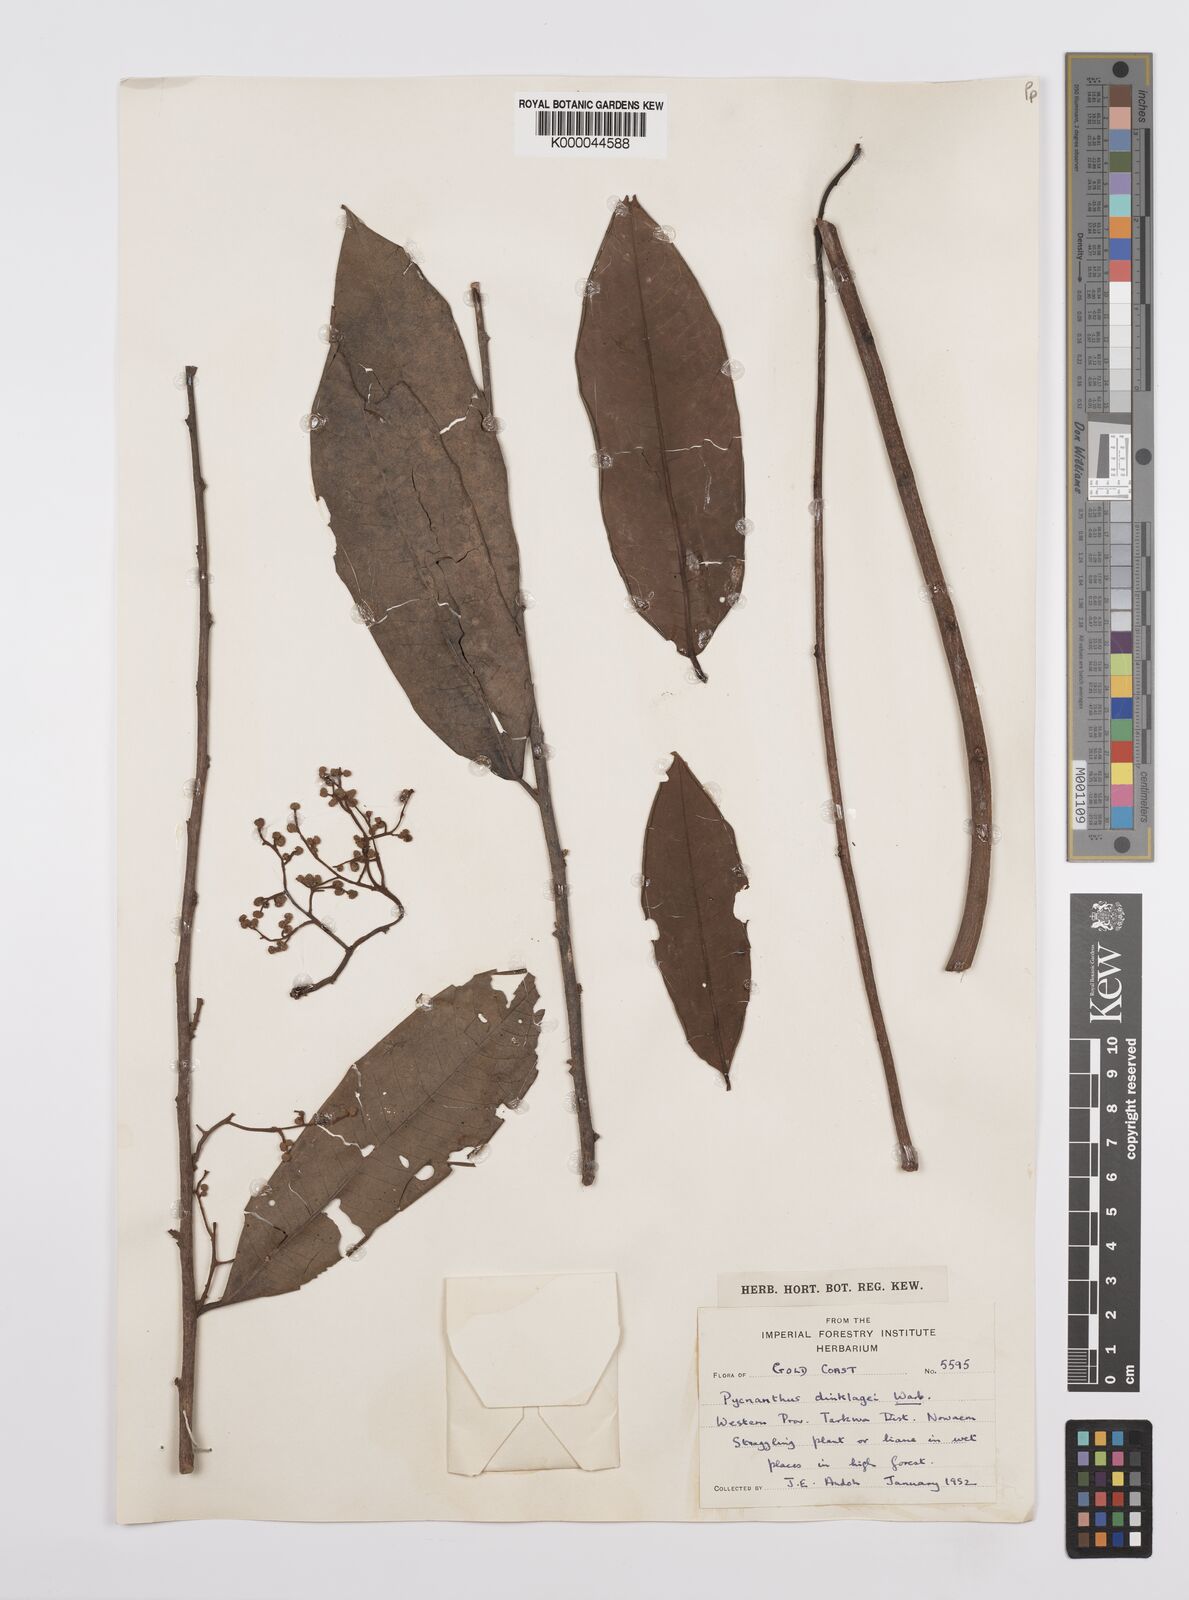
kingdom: Plantae
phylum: Tracheophyta
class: Magnoliopsida
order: Magnoliales
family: Myristicaceae
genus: Pycnanthus
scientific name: Pycnanthus dinklagei
